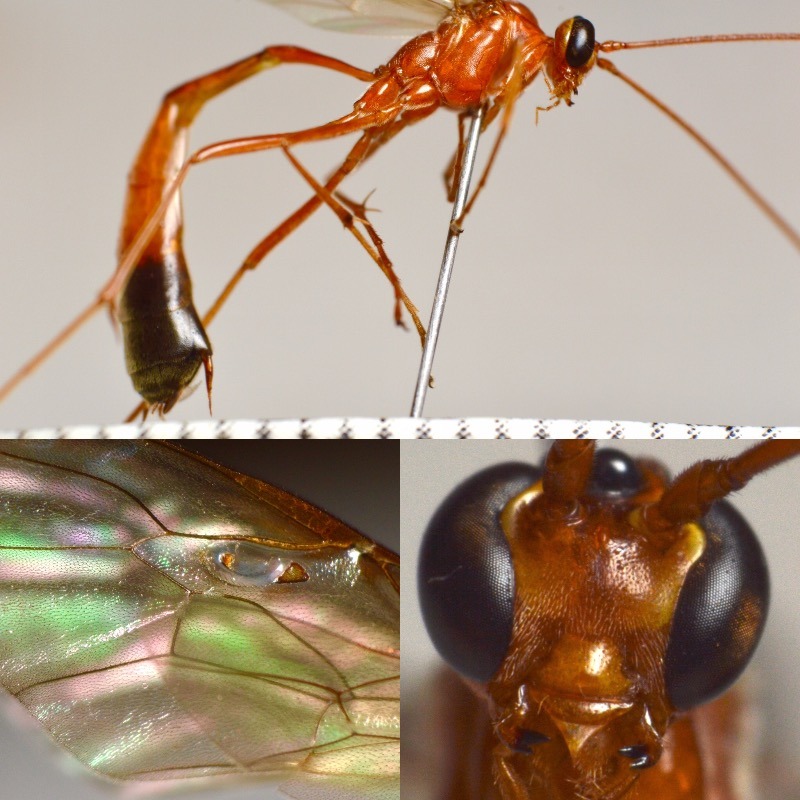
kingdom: Animalia
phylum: Arthropoda
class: Insecta
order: Hymenoptera
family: Ichneumonidae
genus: Enicospilus
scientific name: Enicospilus ramidulus
